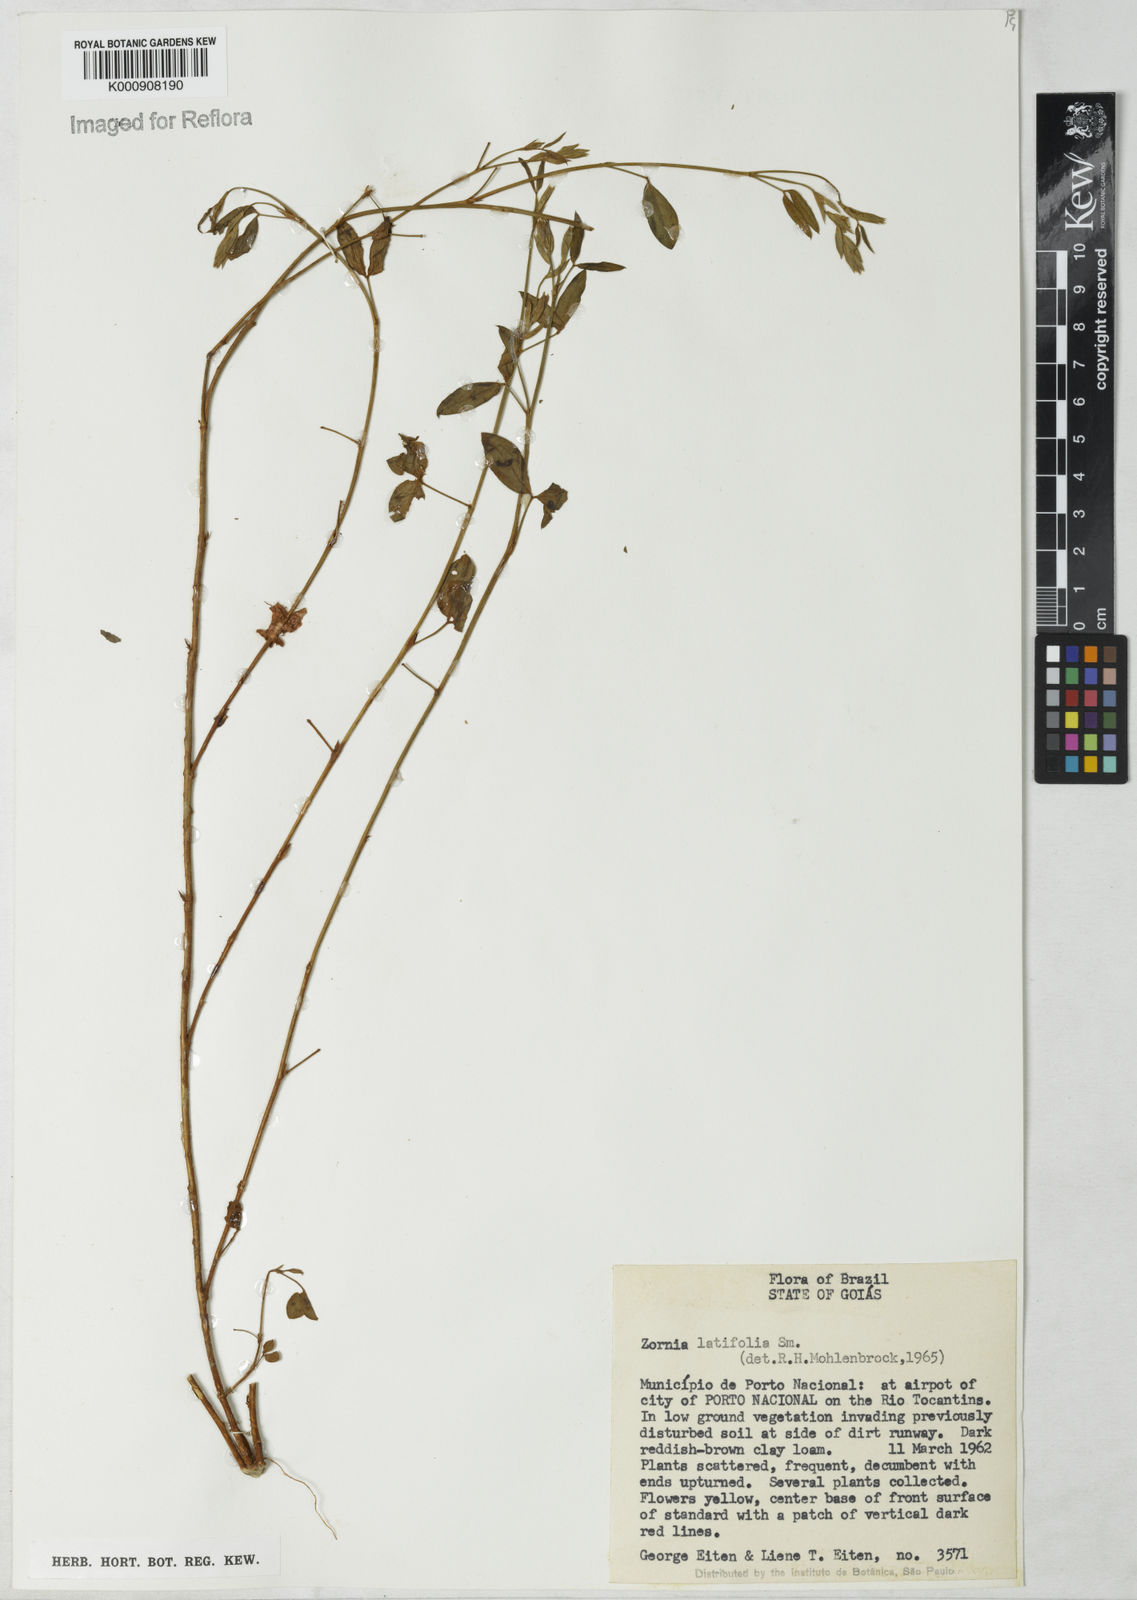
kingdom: Plantae
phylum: Tracheophyta
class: Magnoliopsida
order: Fabales
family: Fabaceae
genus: Zornia
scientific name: Zornia latifolia
